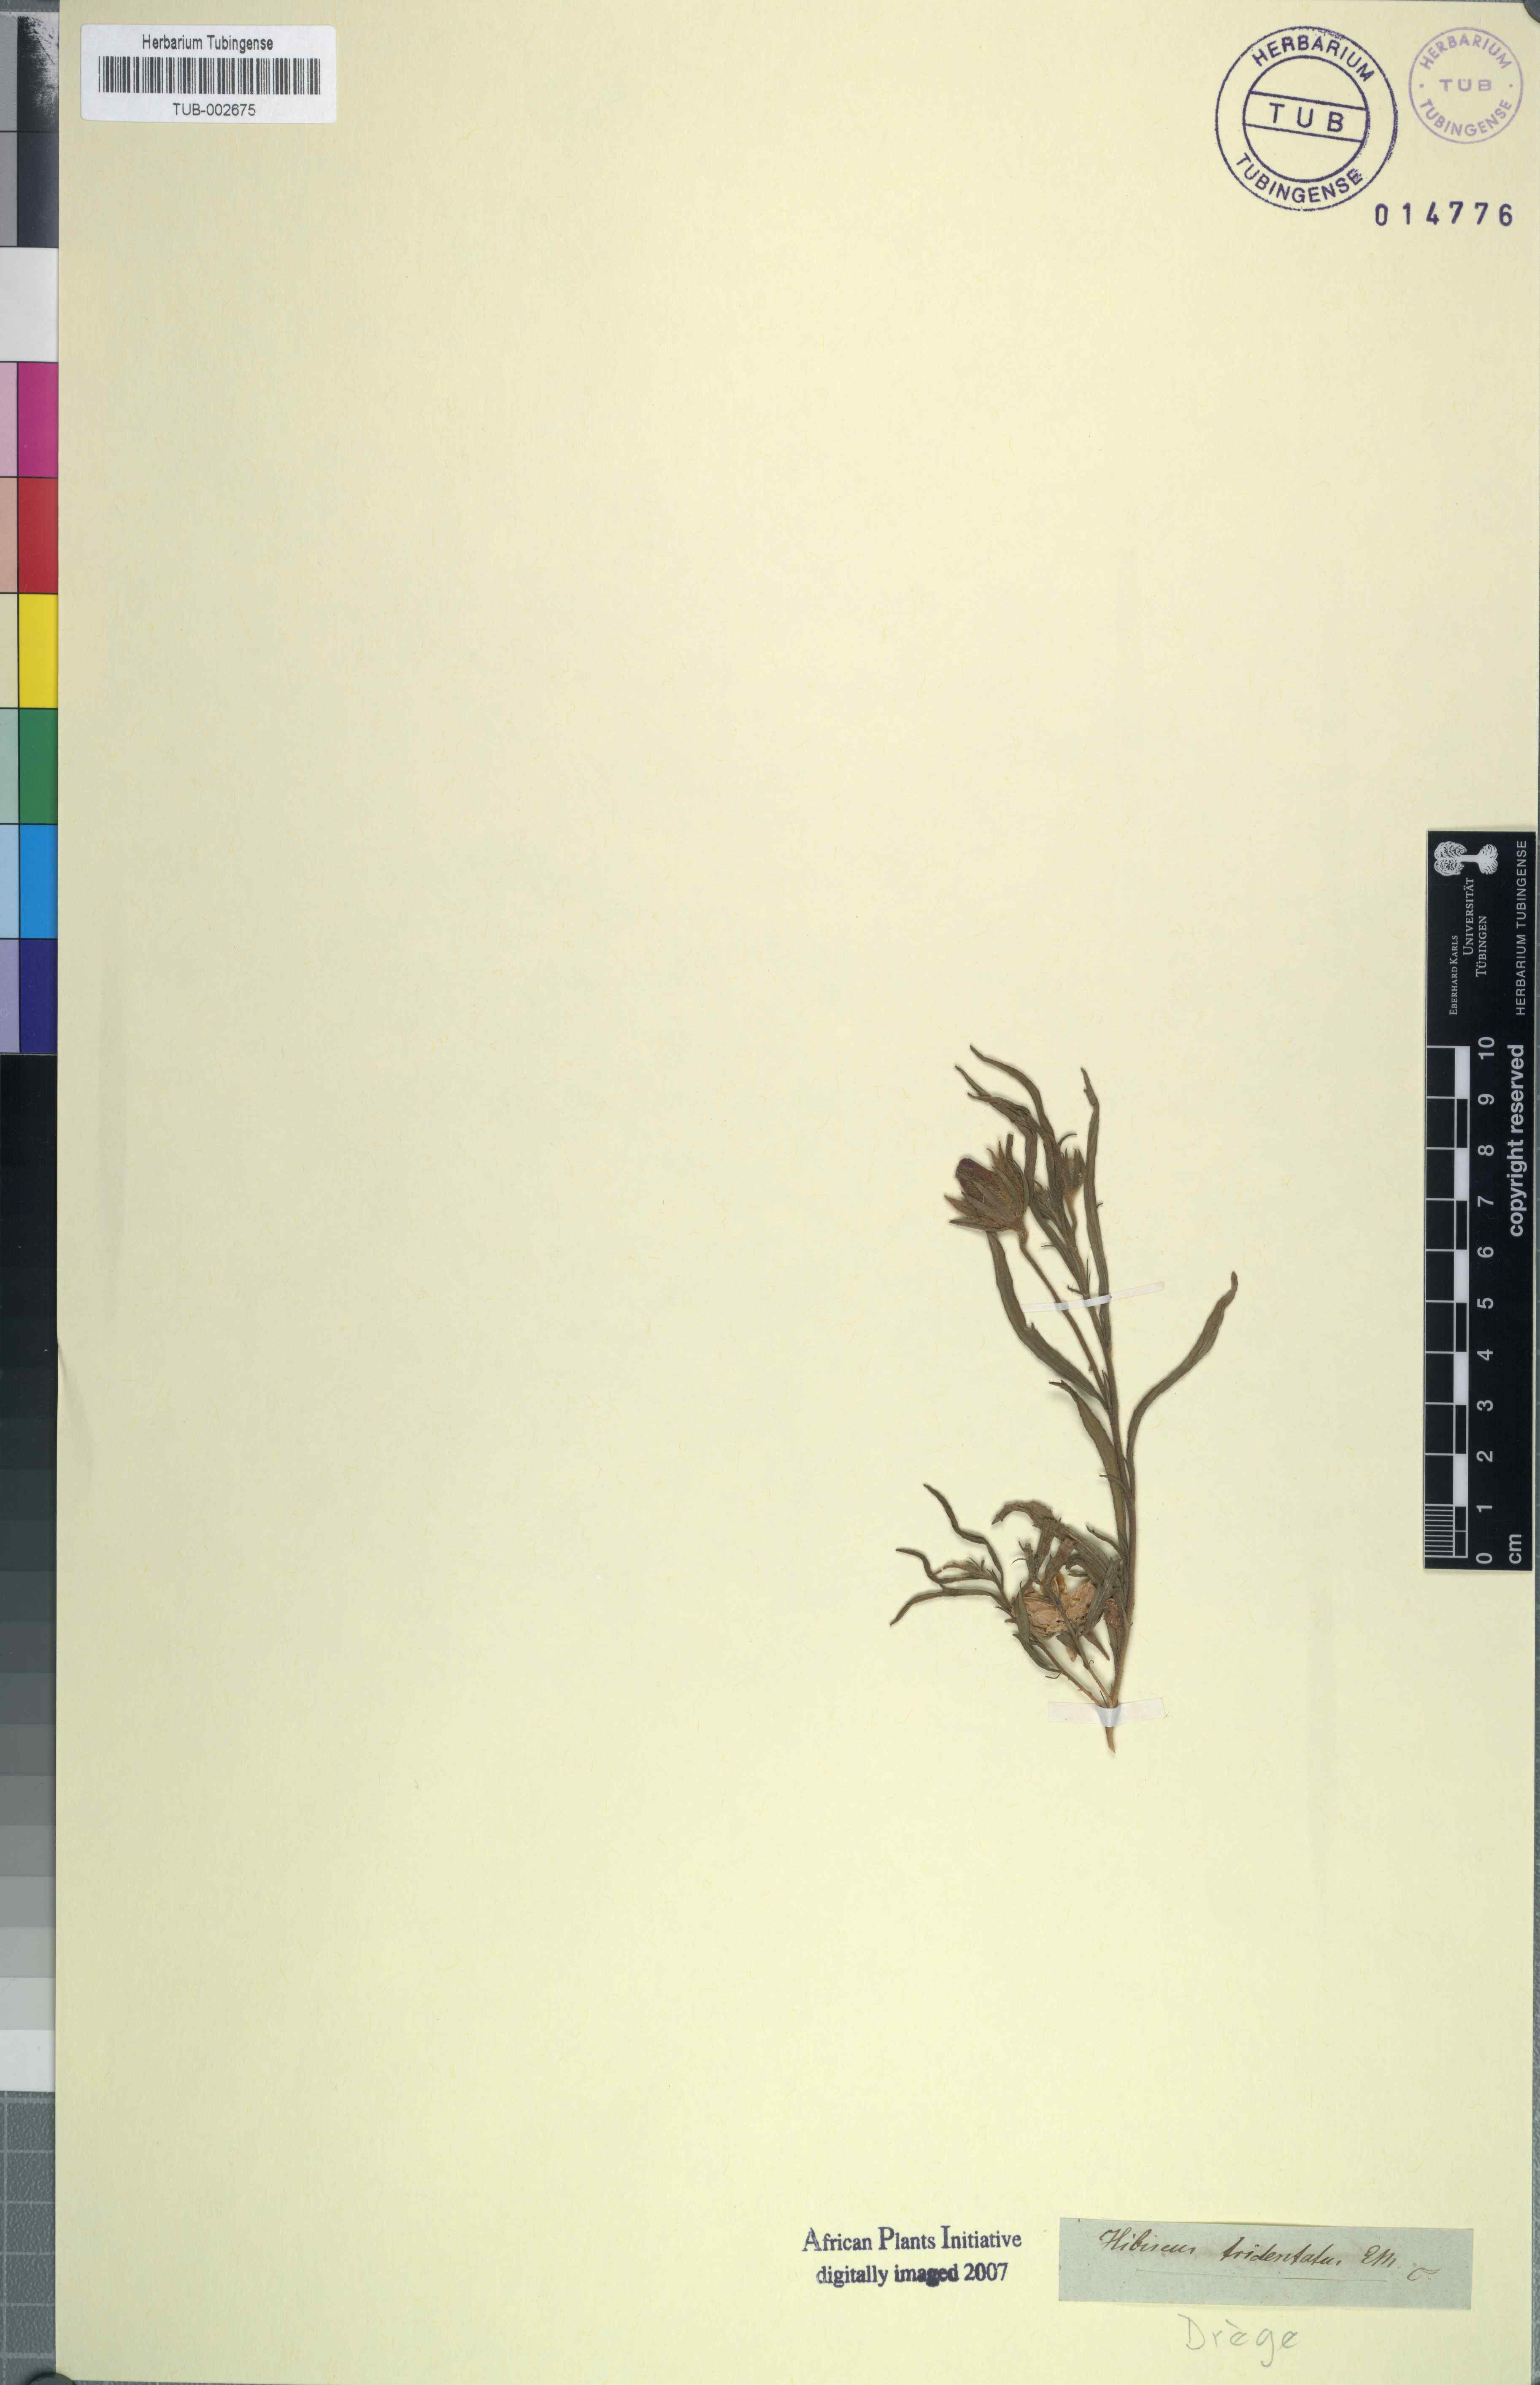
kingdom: Plantae
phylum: Tracheophyta
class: Magnoliopsida
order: Malvales
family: Malvaceae
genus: Hibiscus
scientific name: Hibiscus malacospermus
